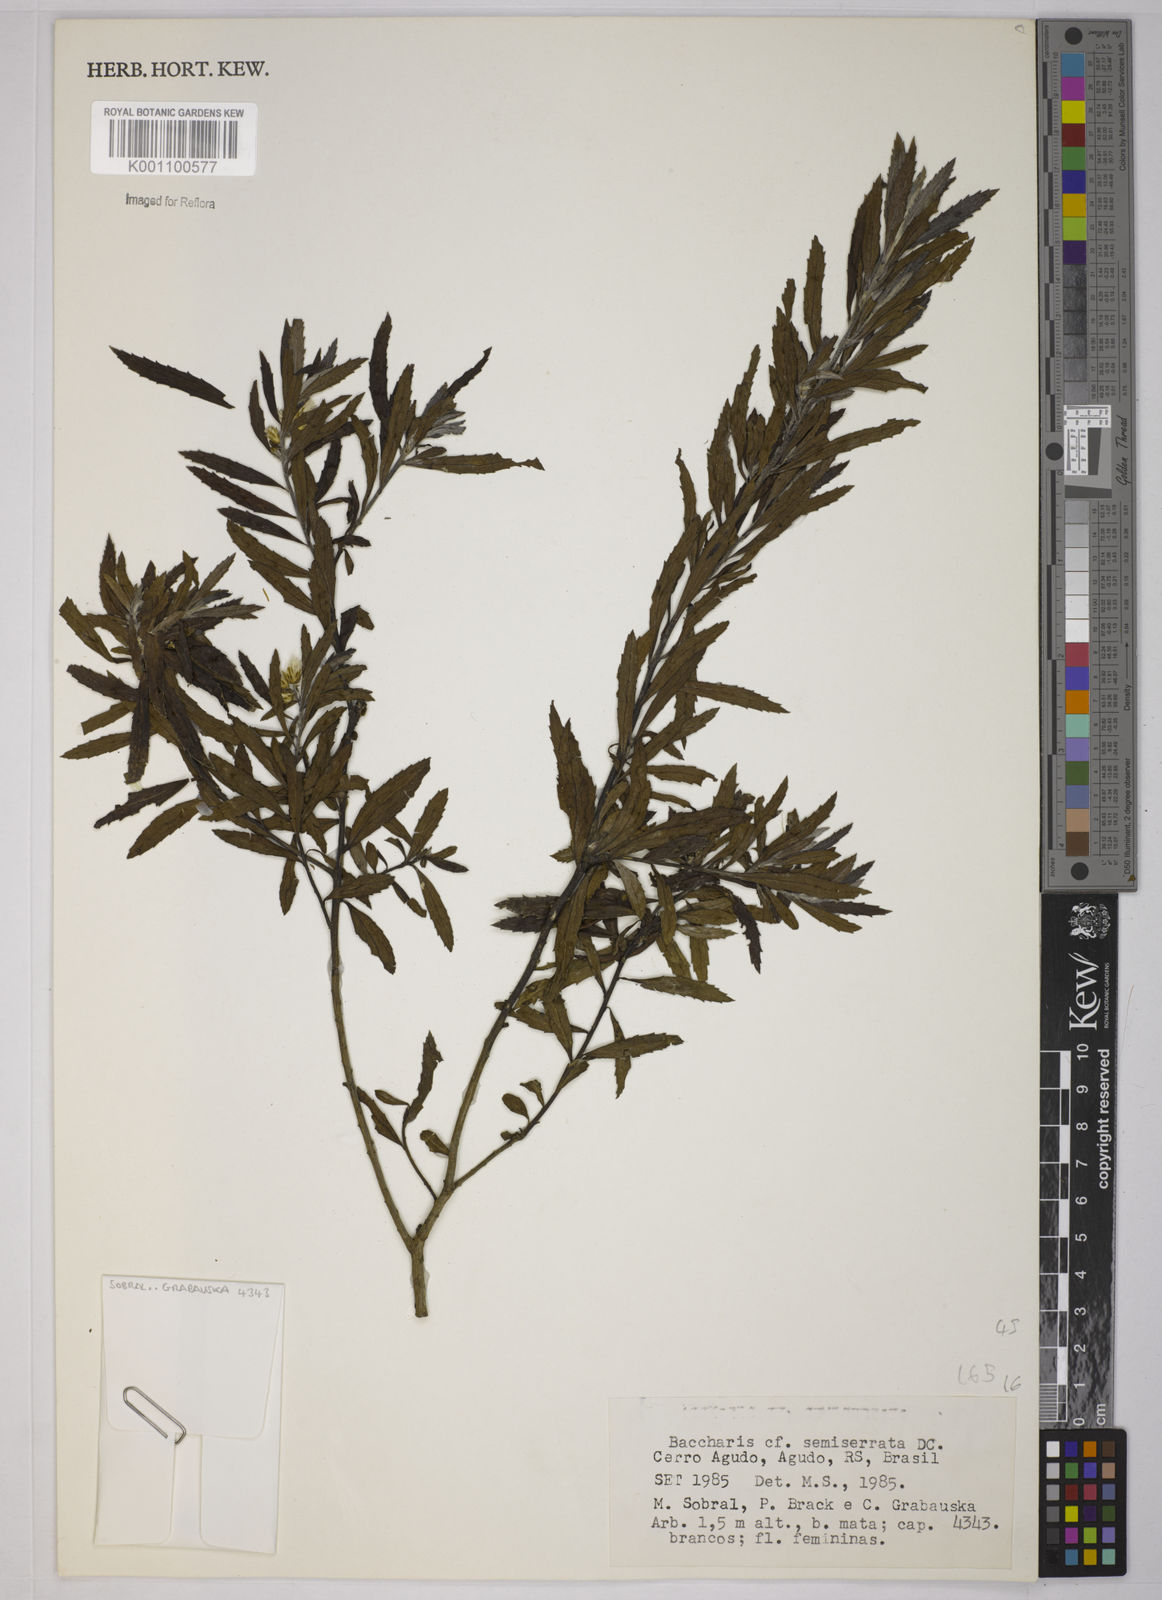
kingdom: Plantae
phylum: Tracheophyta
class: Magnoliopsida
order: Asterales
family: Asteraceae
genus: Baccharis
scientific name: Baccharis gnidiifolia
